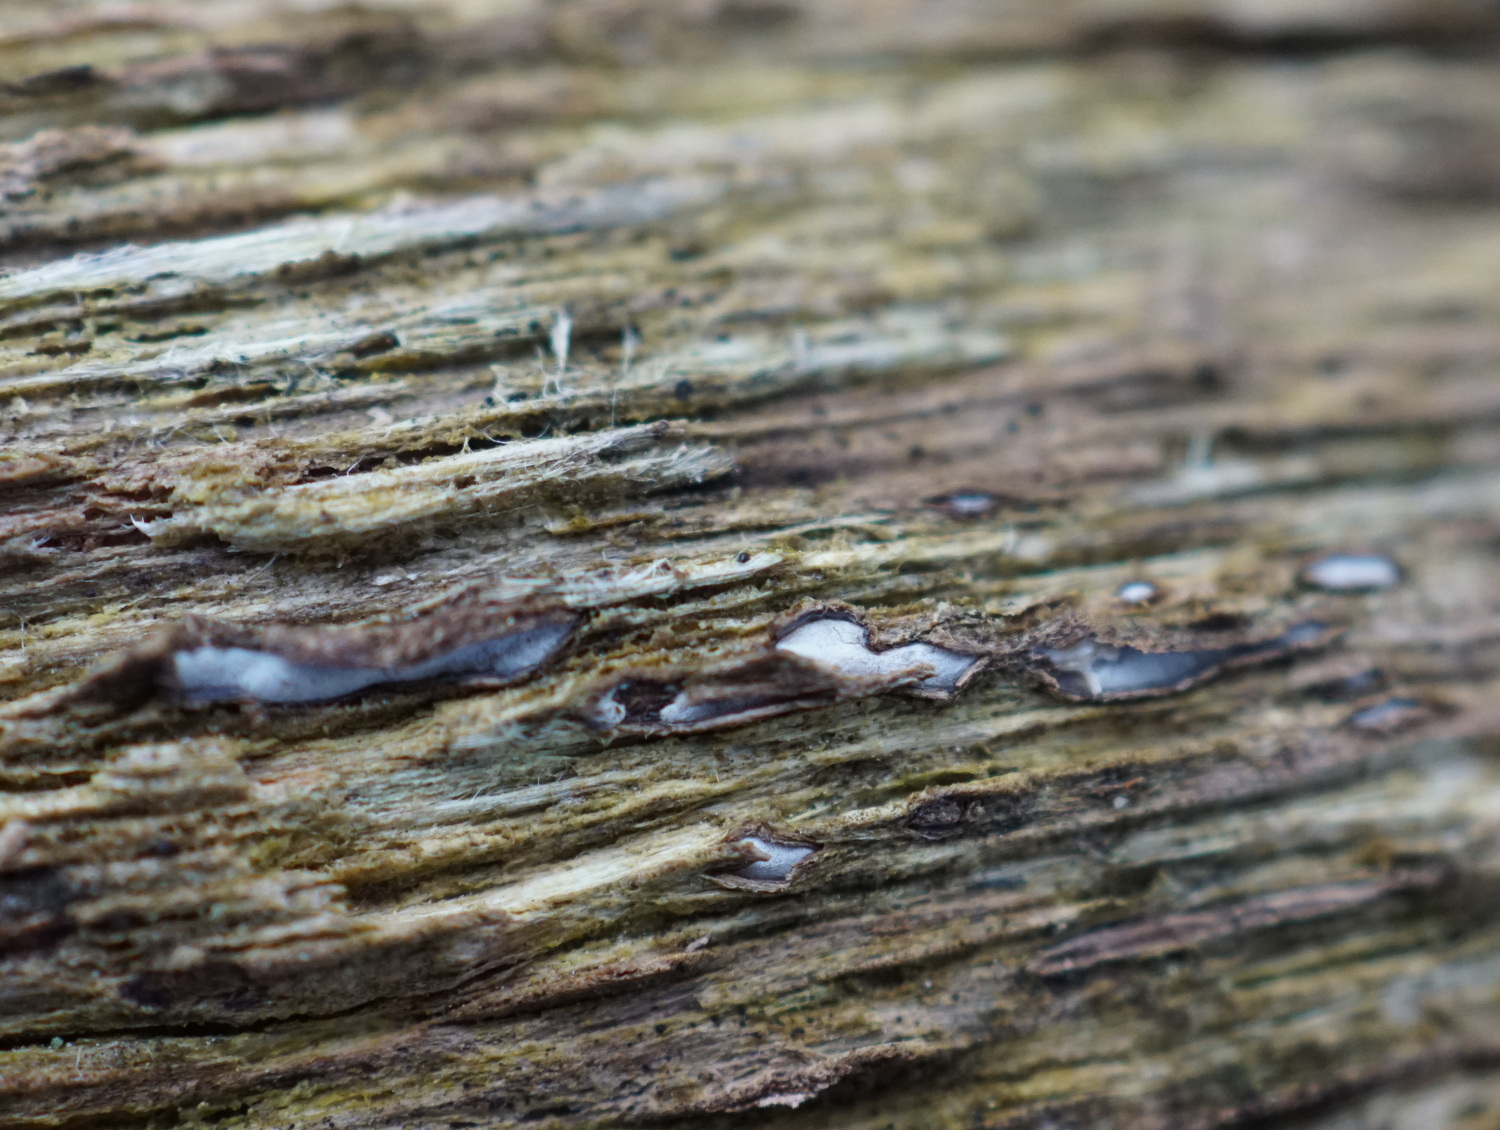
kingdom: Fungi
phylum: Ascomycota
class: Leotiomycetes
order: Chaetomellales
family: Marthamycetaceae
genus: Propolis
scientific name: Propolis farinosa
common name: almindelig vedsprængerskive
